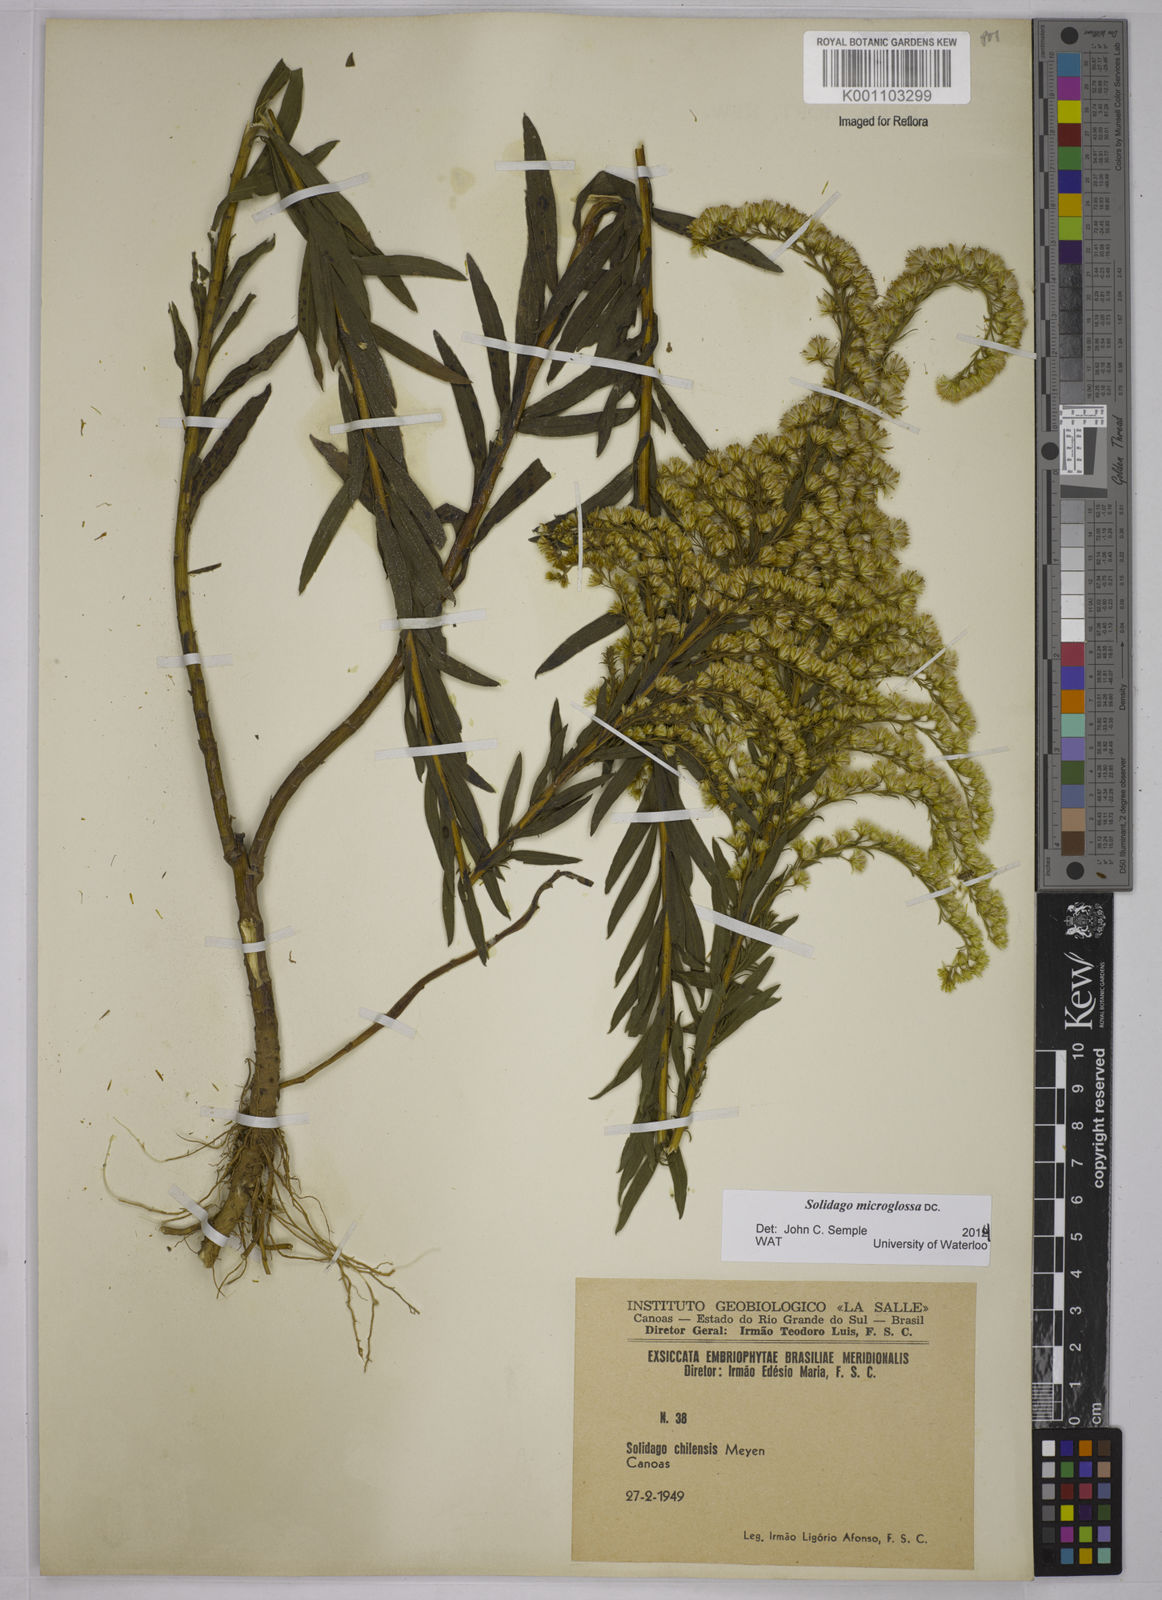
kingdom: Plantae
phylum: Tracheophyta
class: Magnoliopsida
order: Asterales
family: Asteraceae
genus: Solidago
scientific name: Solidago chilensis
